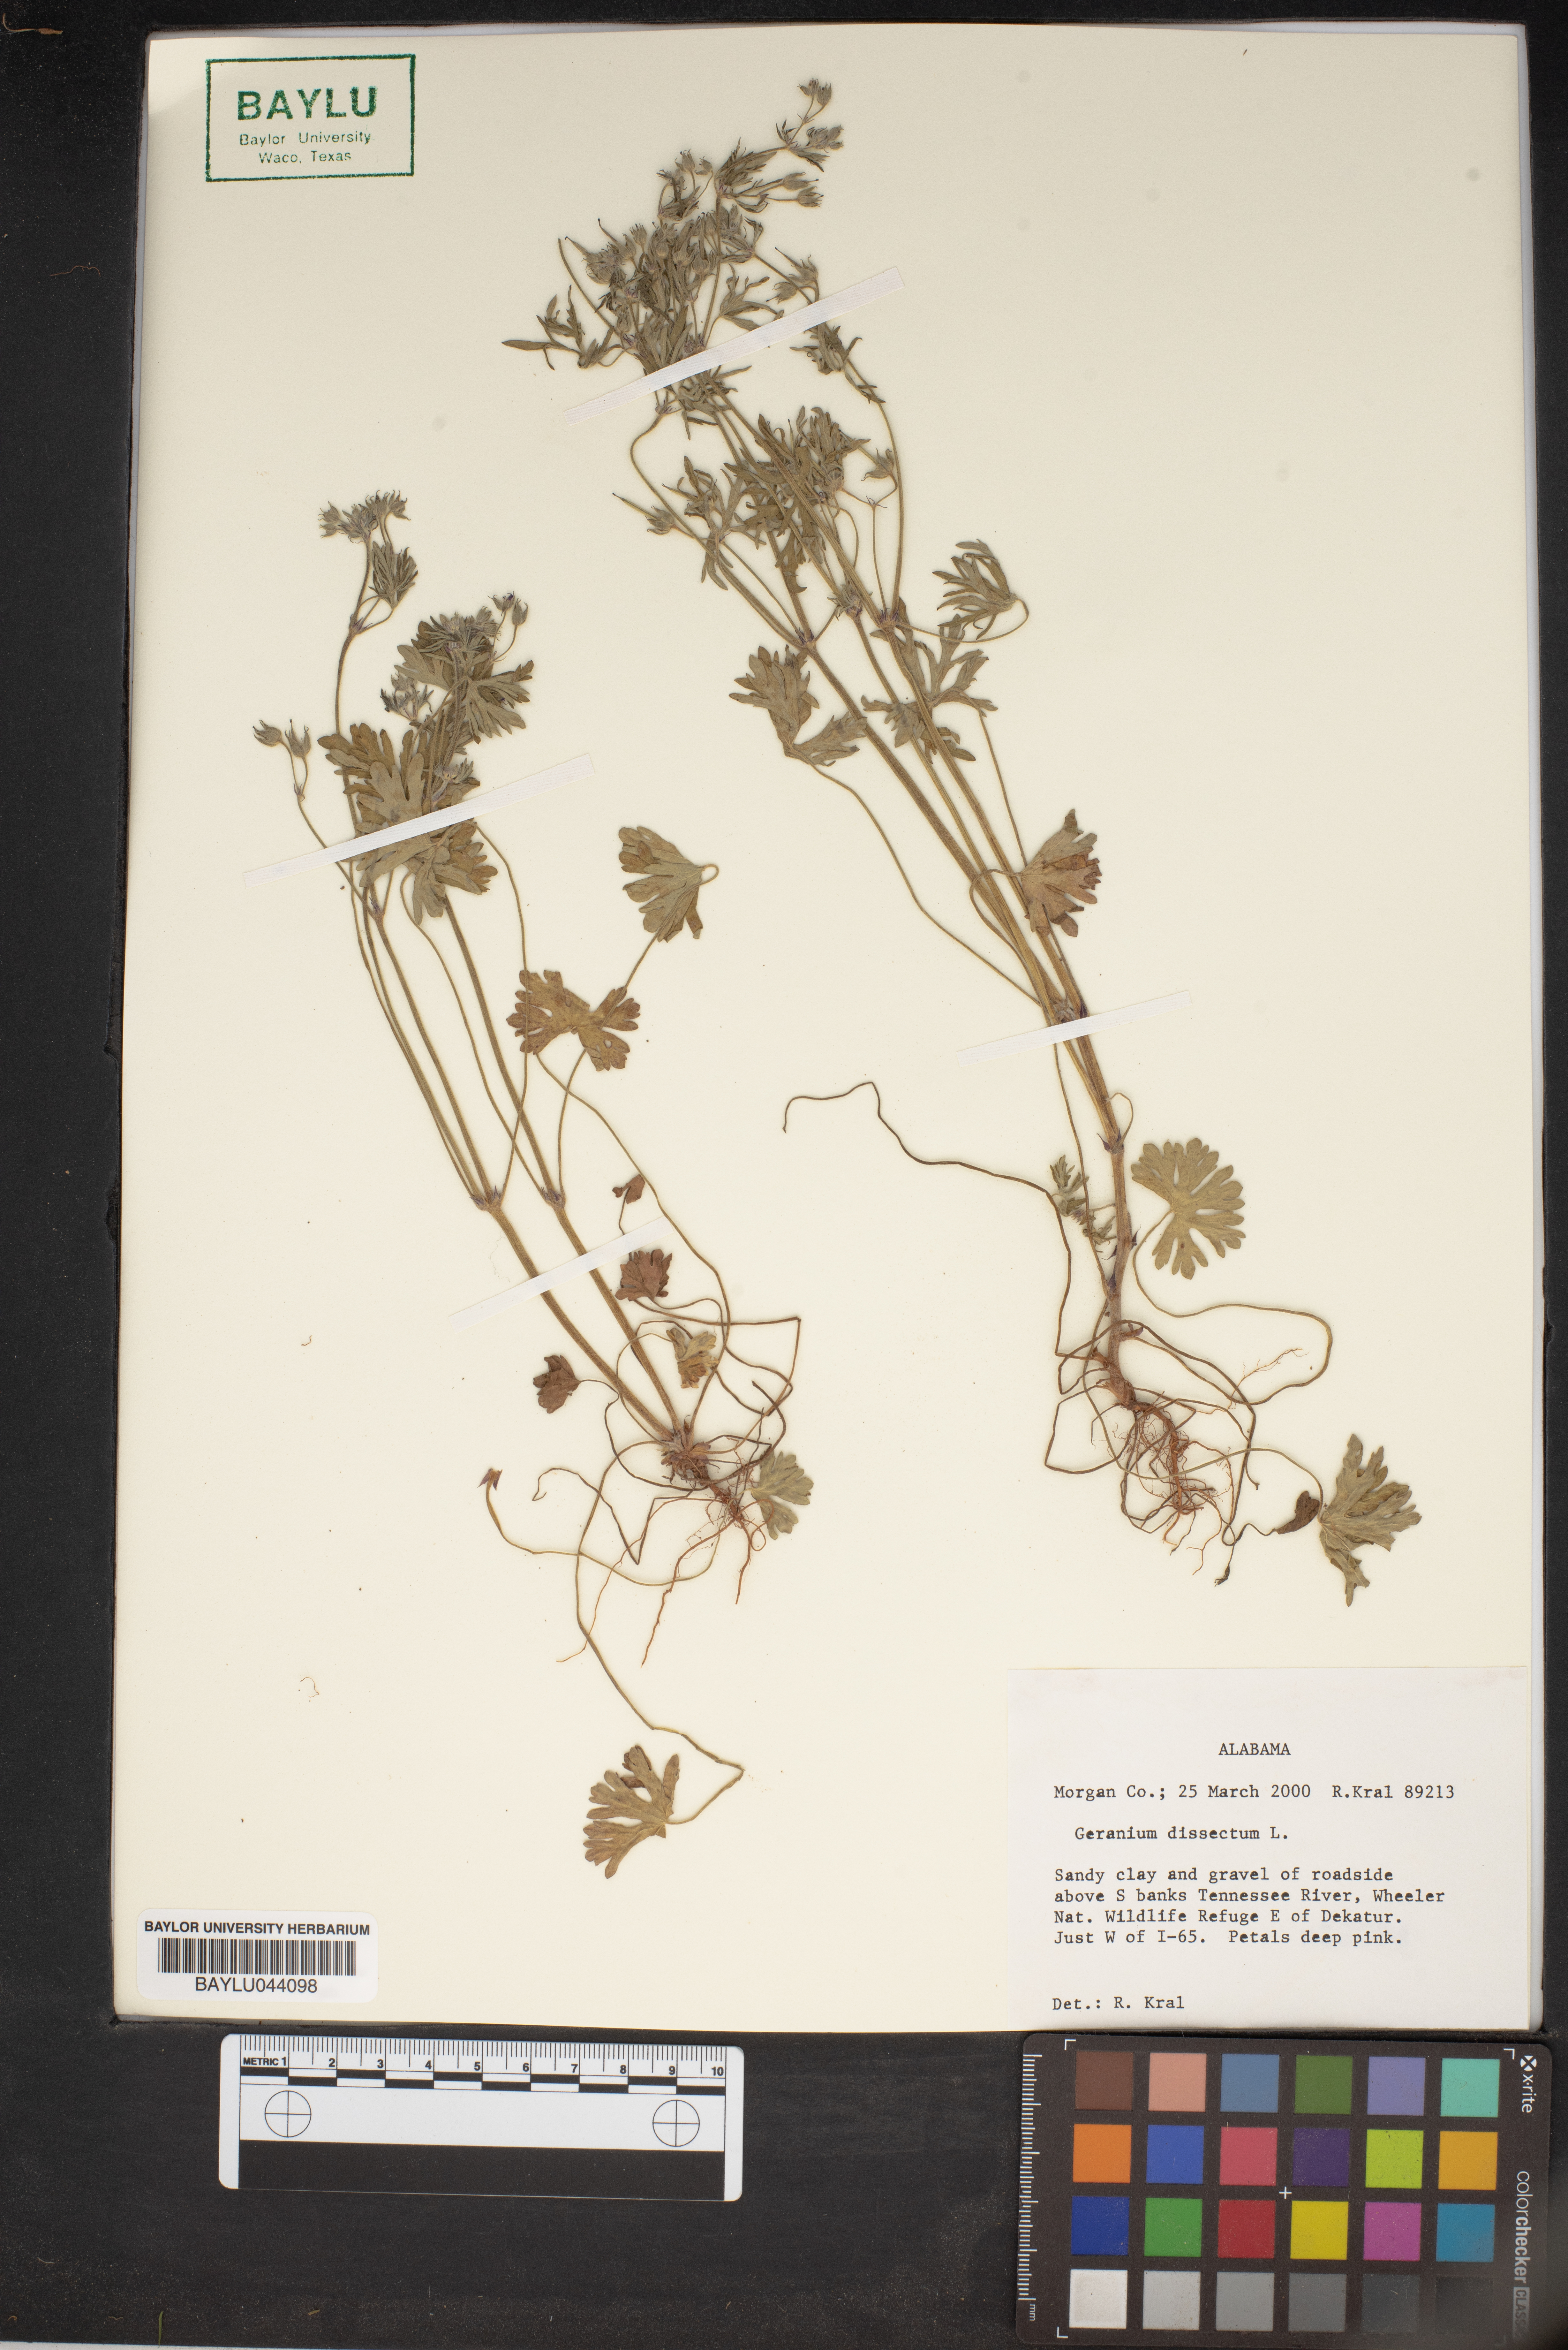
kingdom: Plantae
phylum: Tracheophyta
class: Magnoliopsida
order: Geraniales
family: Geraniaceae
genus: Geranium
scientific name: Geranium dissectum
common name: Cut-leaved crane's-bill
